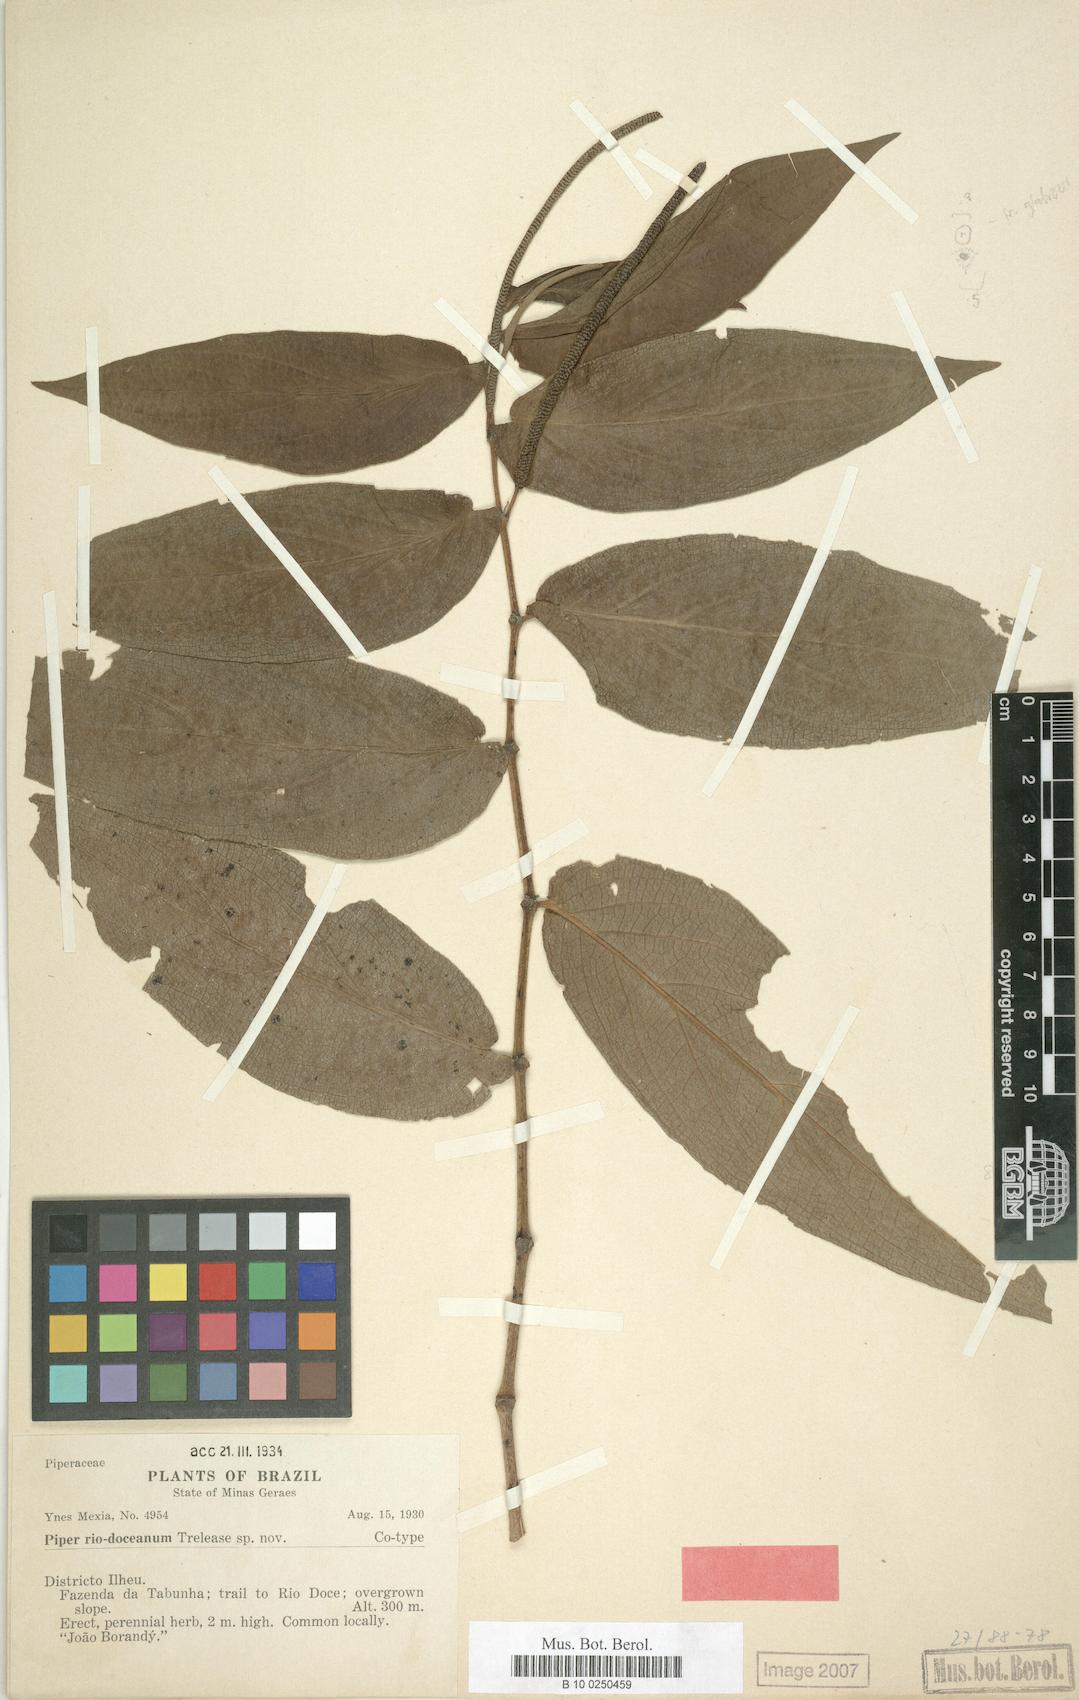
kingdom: Plantae
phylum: Tracheophyta
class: Magnoliopsida
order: Piperales
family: Piperaceae
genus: Piper
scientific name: Piper
